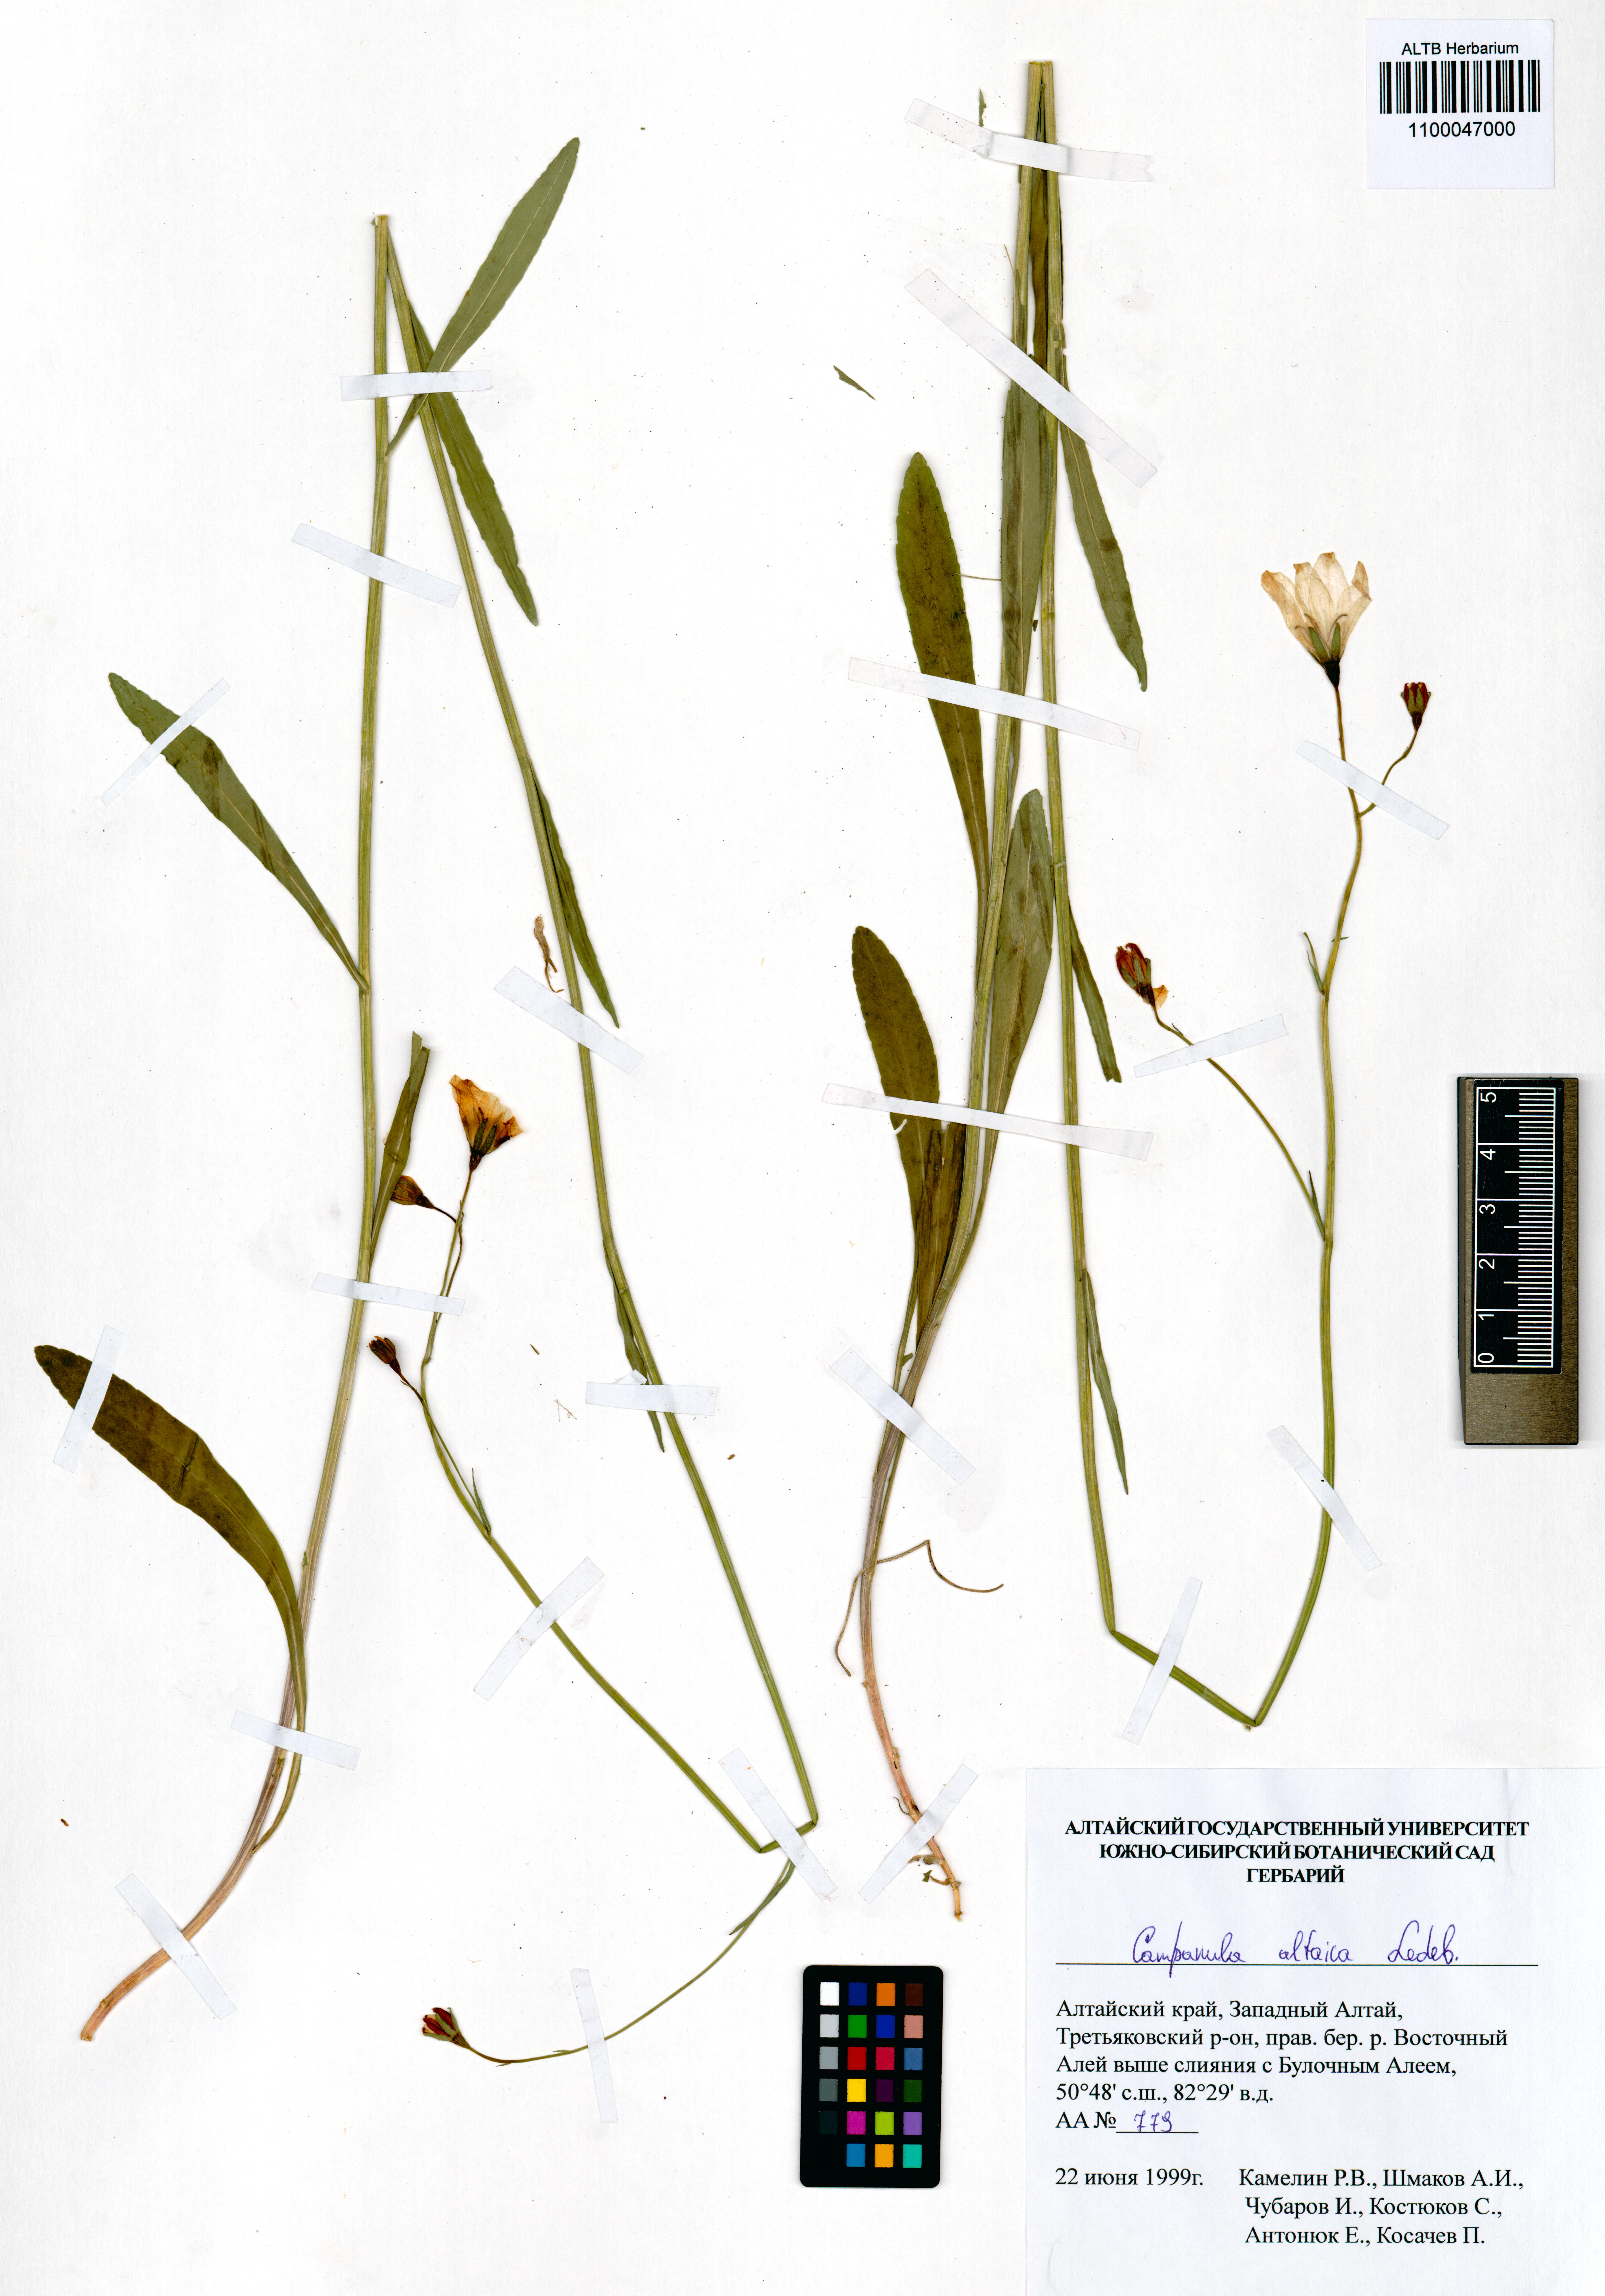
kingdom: Plantae
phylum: Tracheophyta
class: Magnoliopsida
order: Asterales
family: Campanulaceae
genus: Campanula
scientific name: Campanula stevenii
